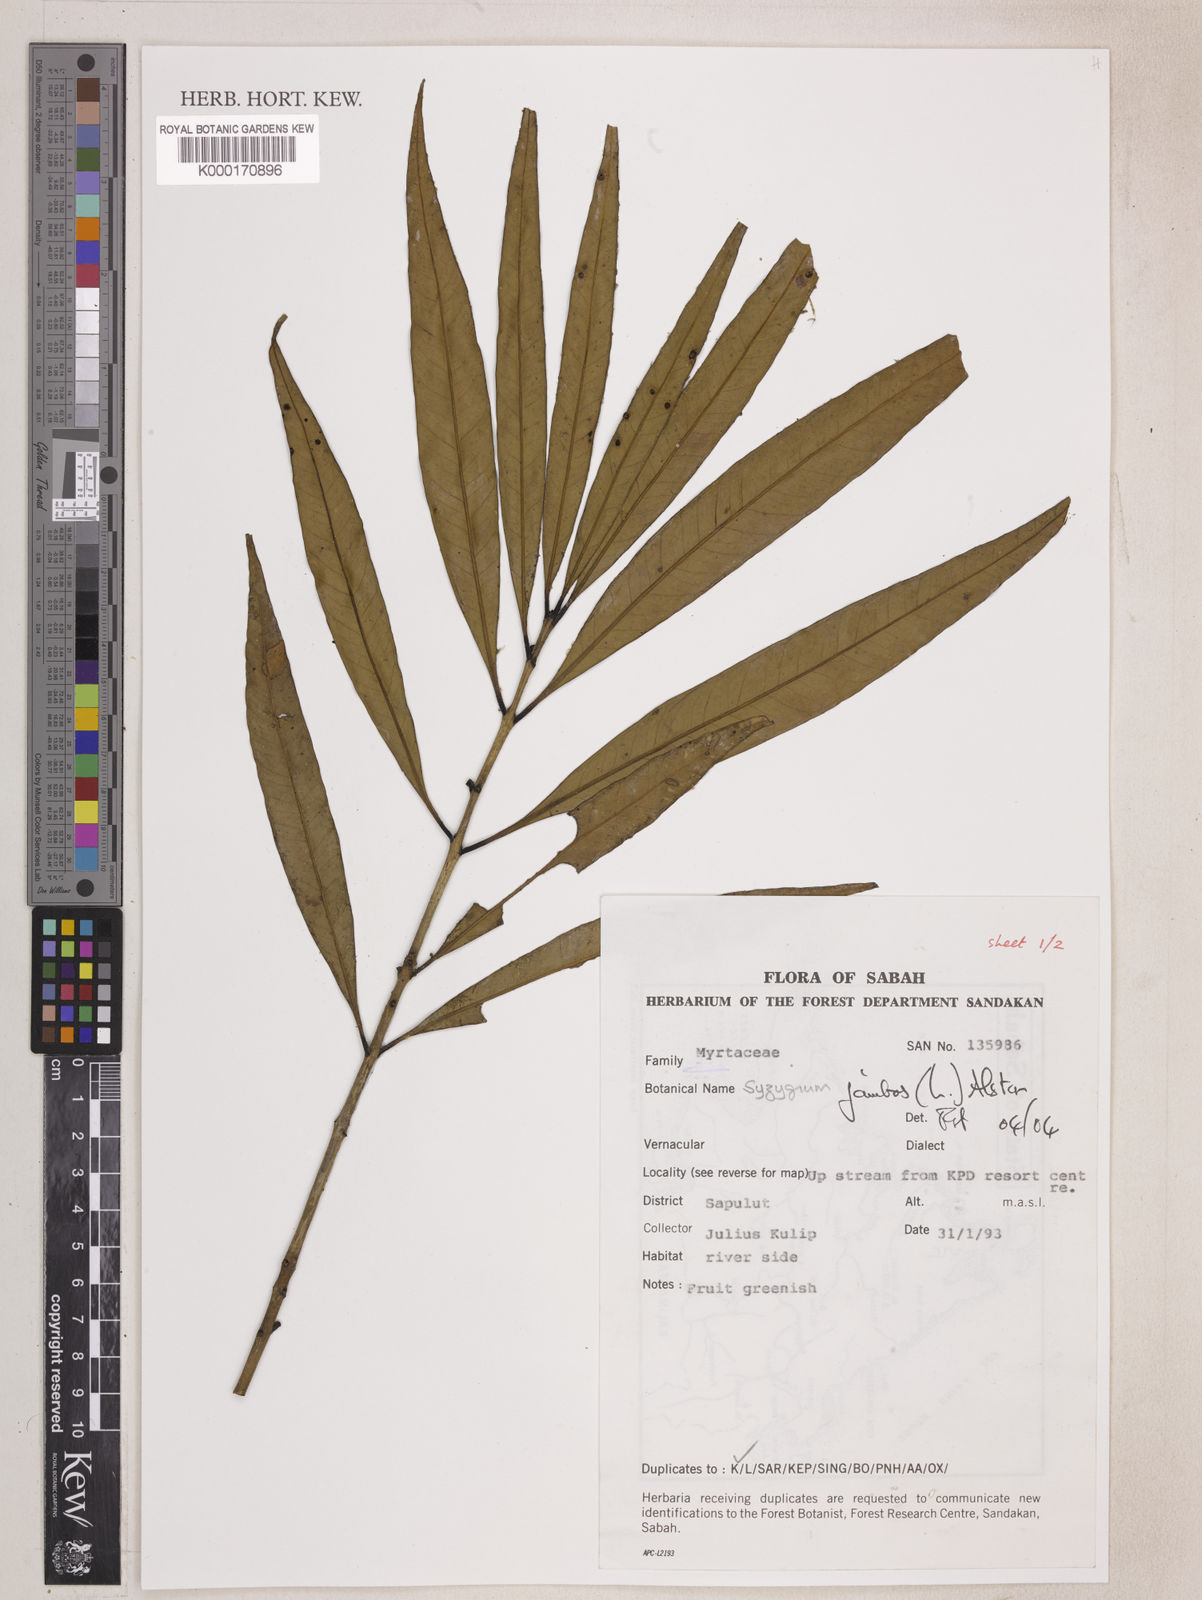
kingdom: Plantae
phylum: Tracheophyta
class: Magnoliopsida
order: Myrtales
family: Myrtaceae
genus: Syzygium
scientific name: Syzygium jambos
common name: Malabar plum
